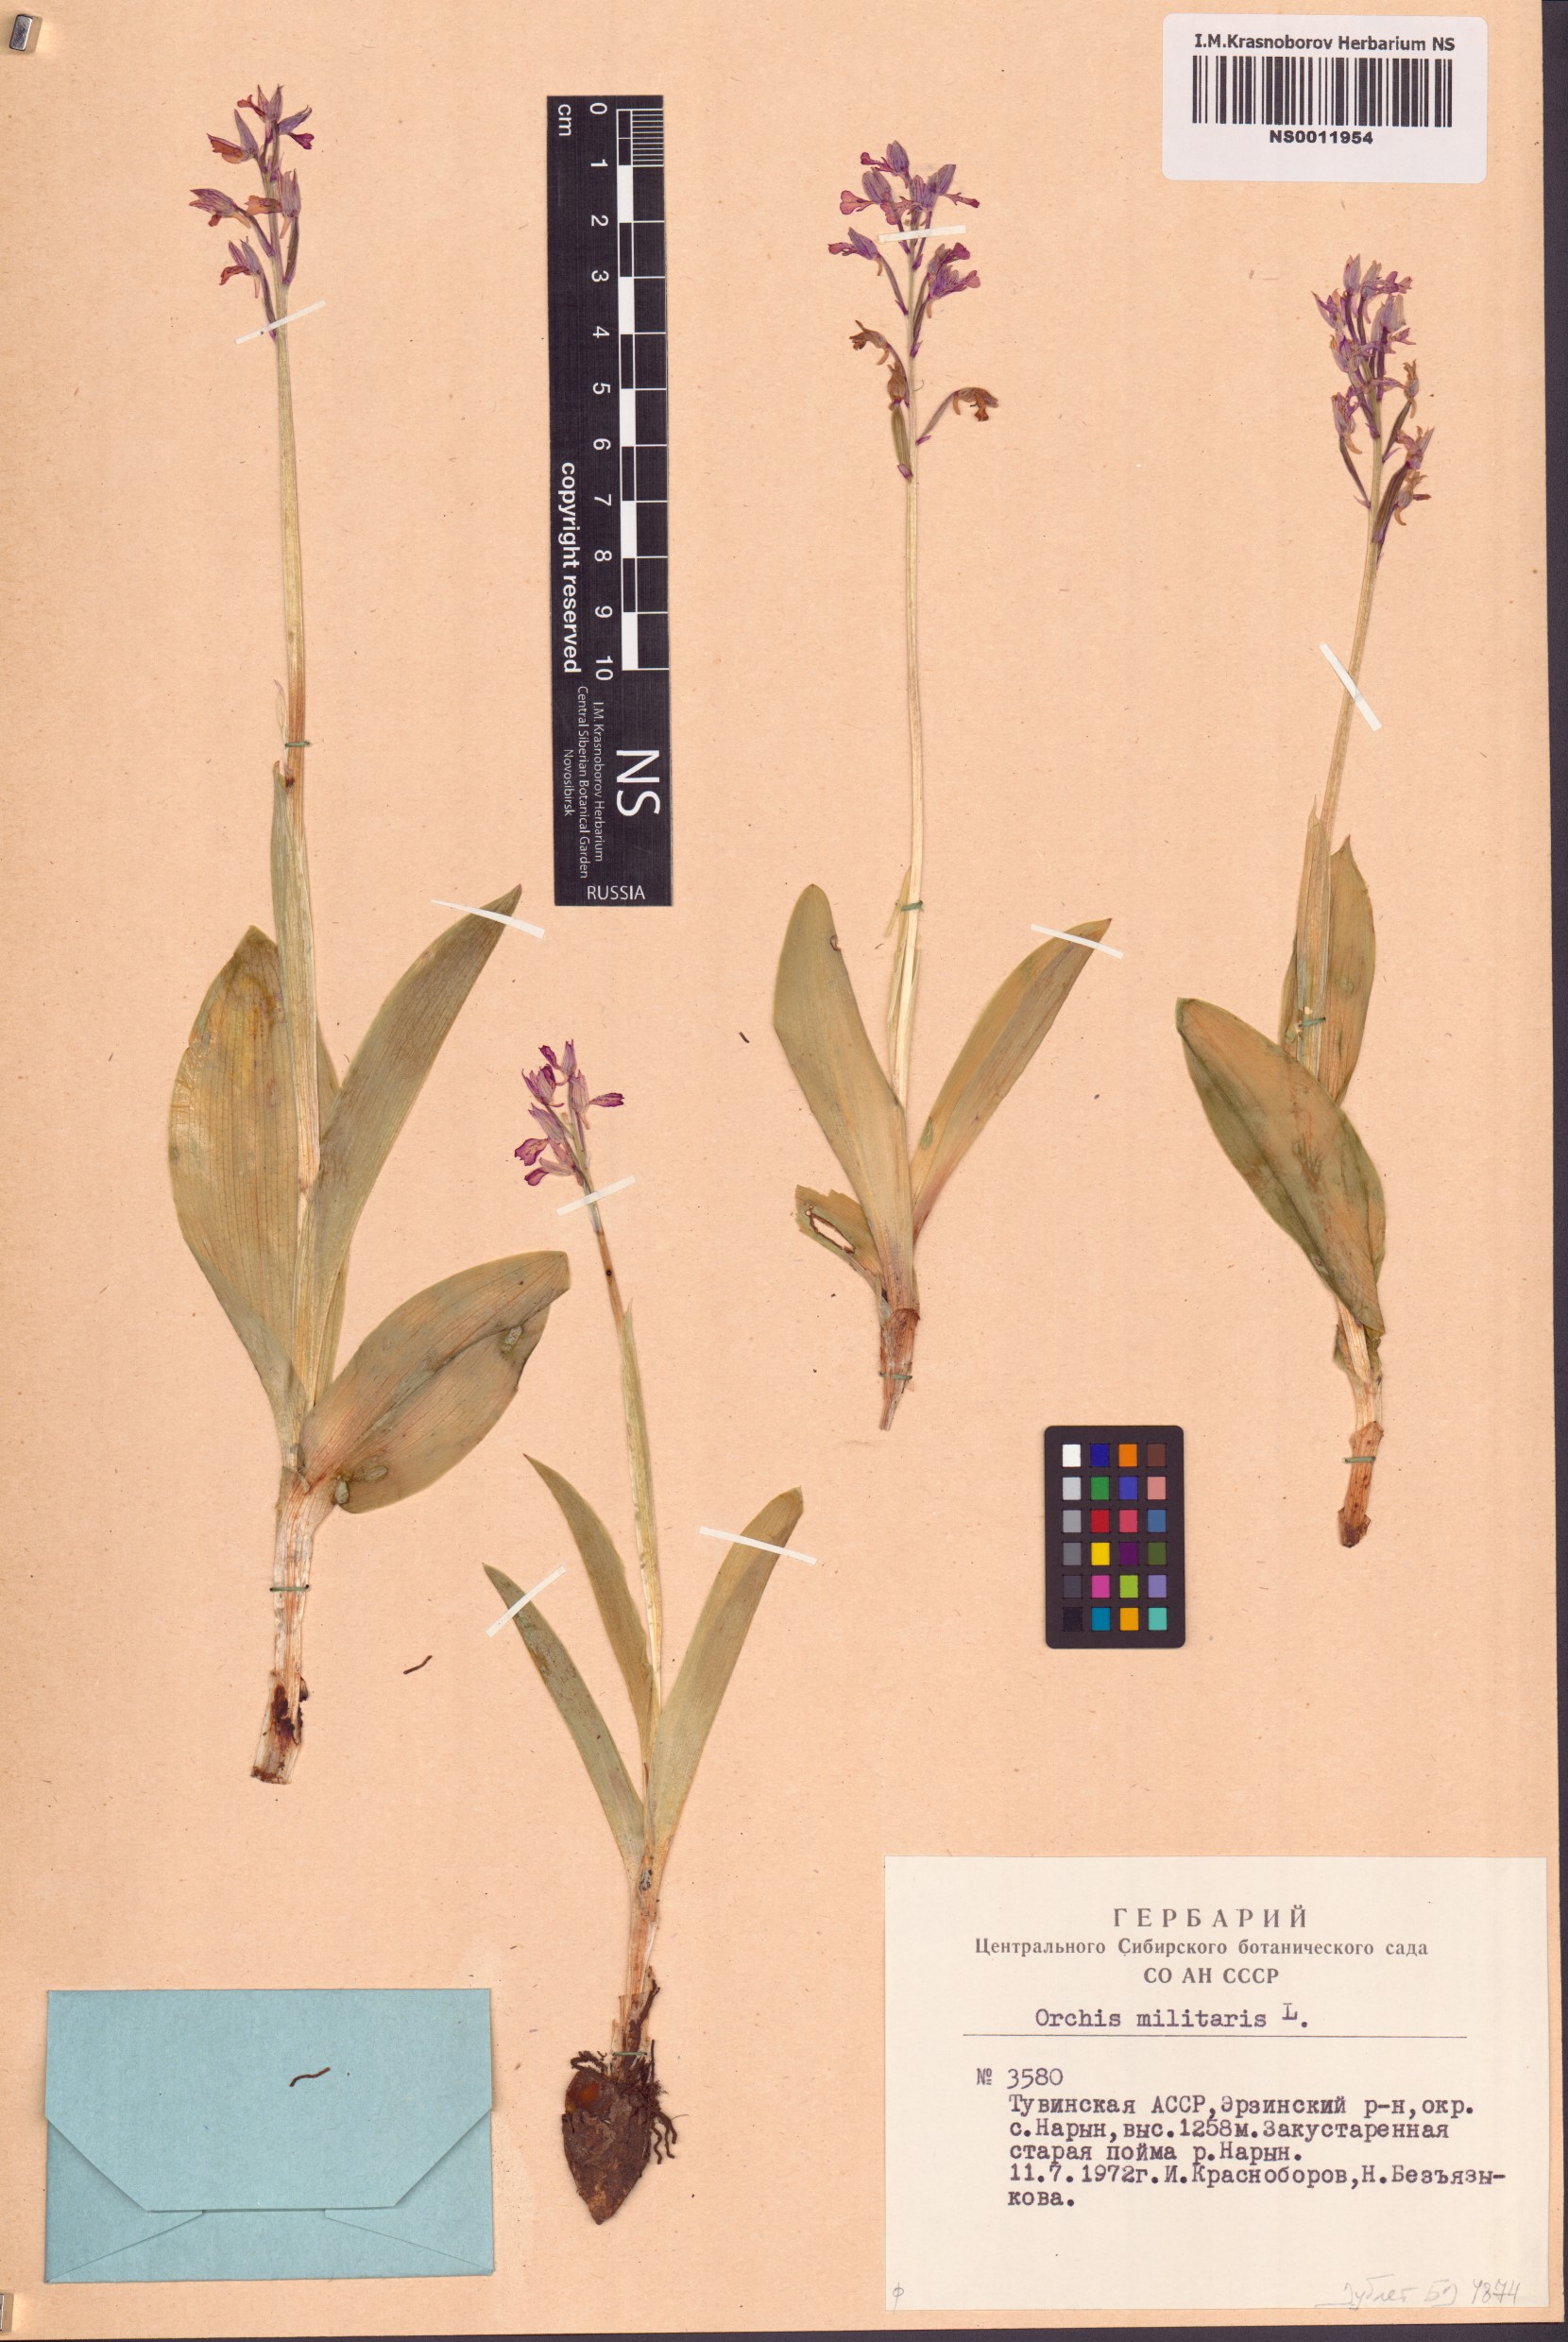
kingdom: Plantae
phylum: Tracheophyta
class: Liliopsida
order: Asparagales
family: Orchidaceae
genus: Orchis
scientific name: Orchis militaris
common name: Military orchid
